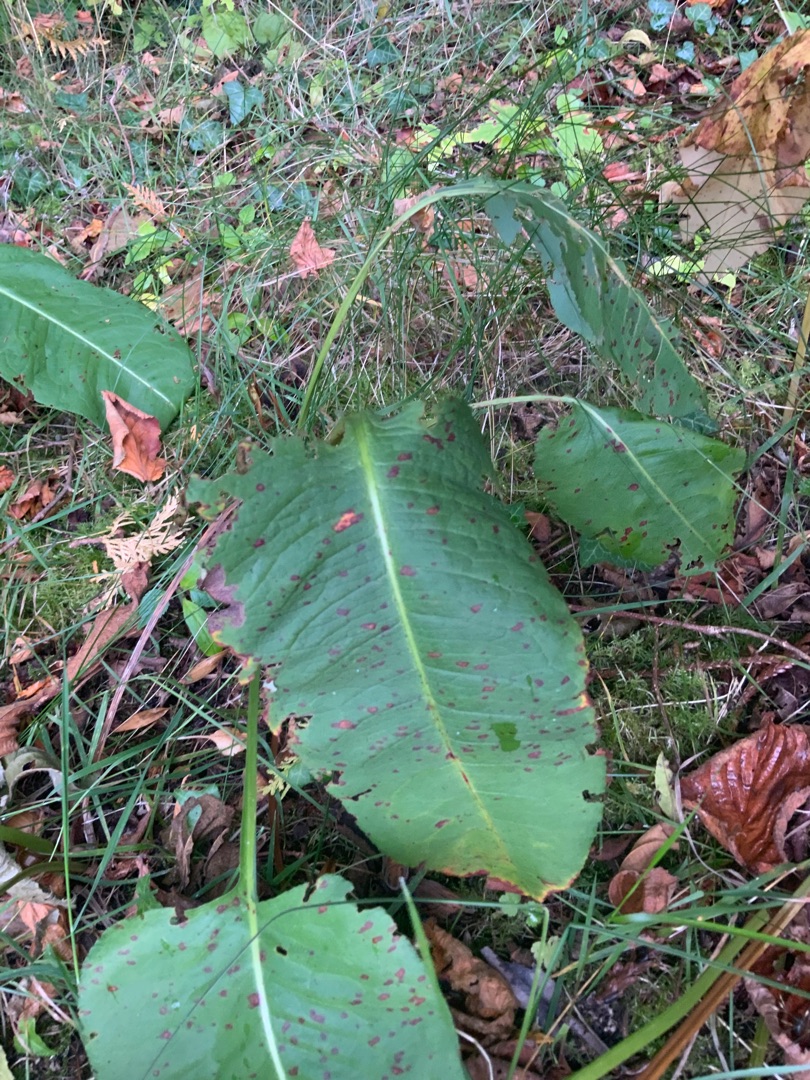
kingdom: Plantae
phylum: Tracheophyta
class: Magnoliopsida
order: Caryophyllales
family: Polygonaceae
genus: Bistorta
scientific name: Bistorta officinalis
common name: Slangeurt
